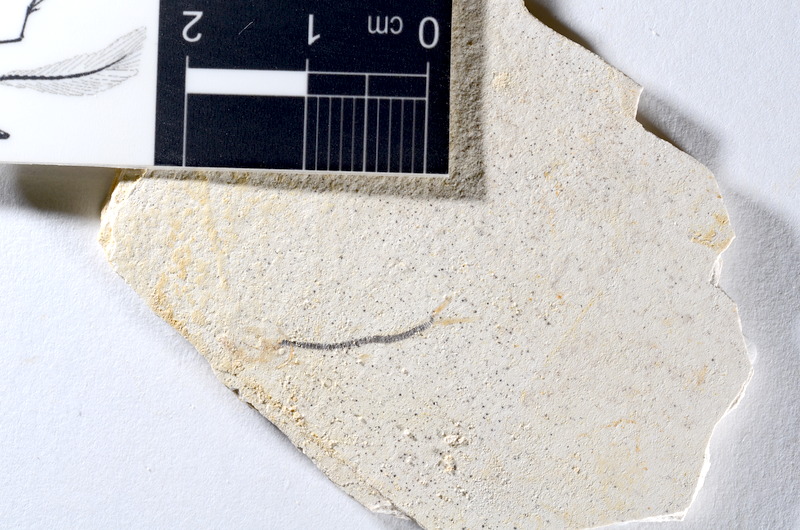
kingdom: Animalia
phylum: Chordata
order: Salmoniformes
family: Orthogonikleithridae
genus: Orthogonikleithrus
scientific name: Orthogonikleithrus hoelli
